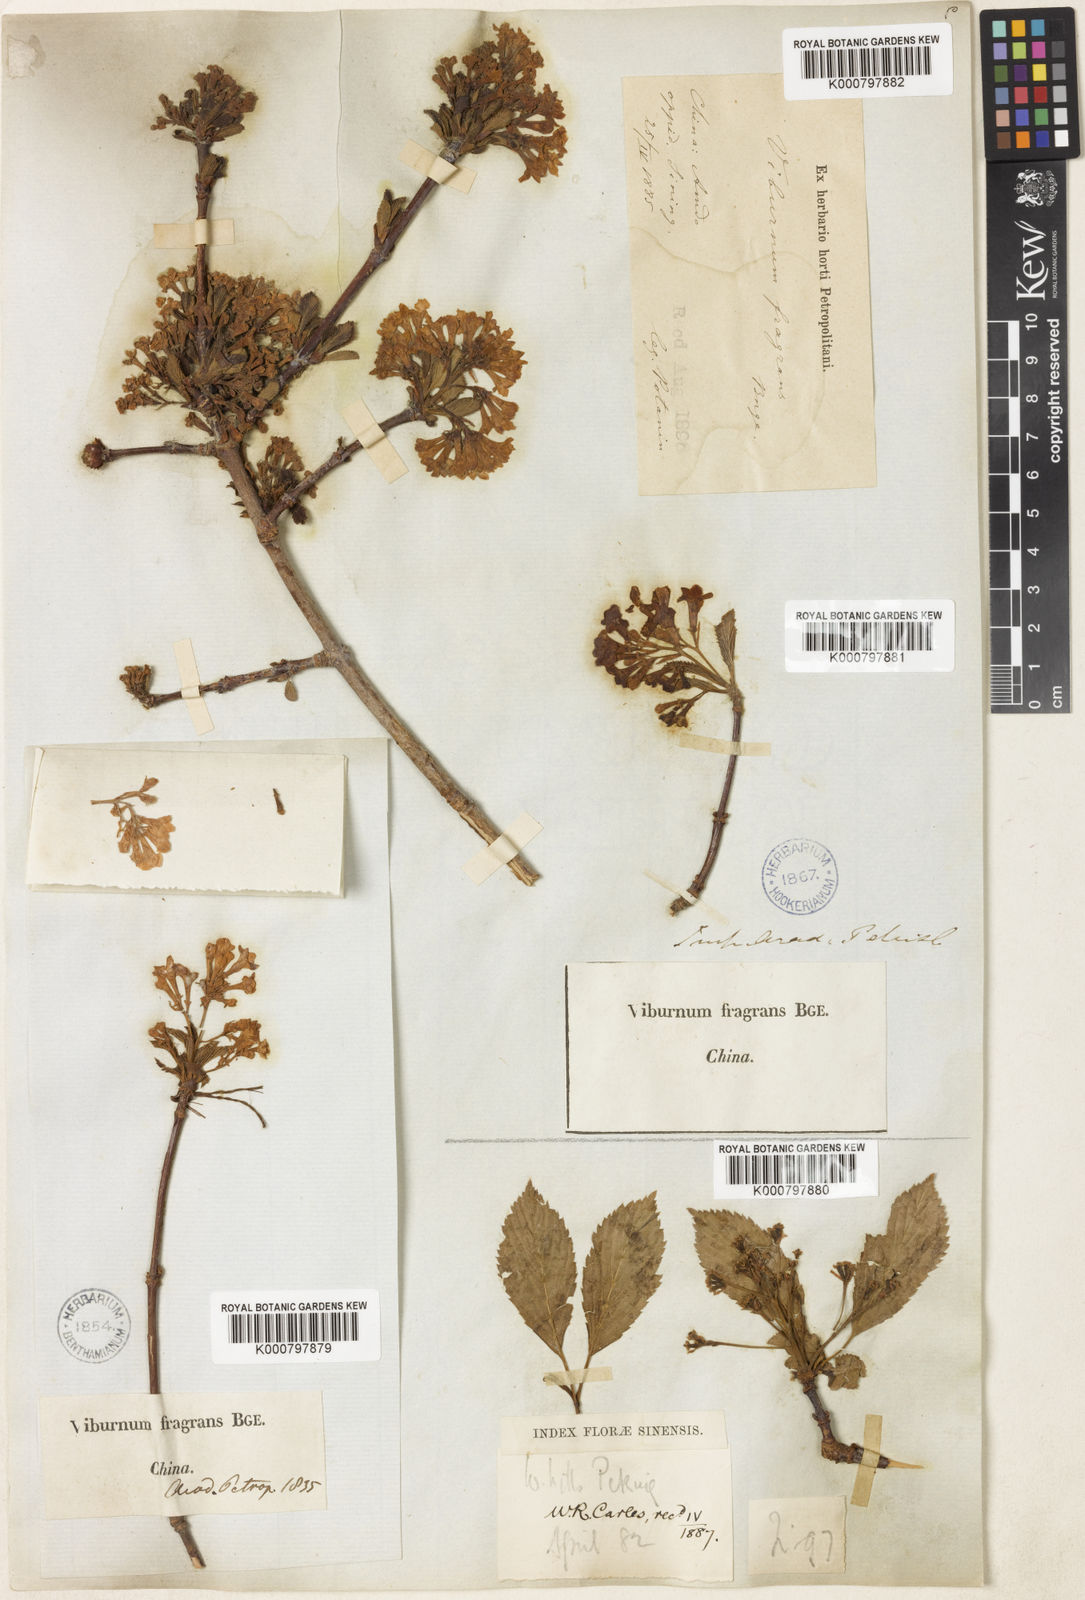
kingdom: Plantae
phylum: Tracheophyta
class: Magnoliopsida
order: Dipsacales
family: Viburnaceae
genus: Viburnum
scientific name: Viburnum farreri
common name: Farrer's viburnum
